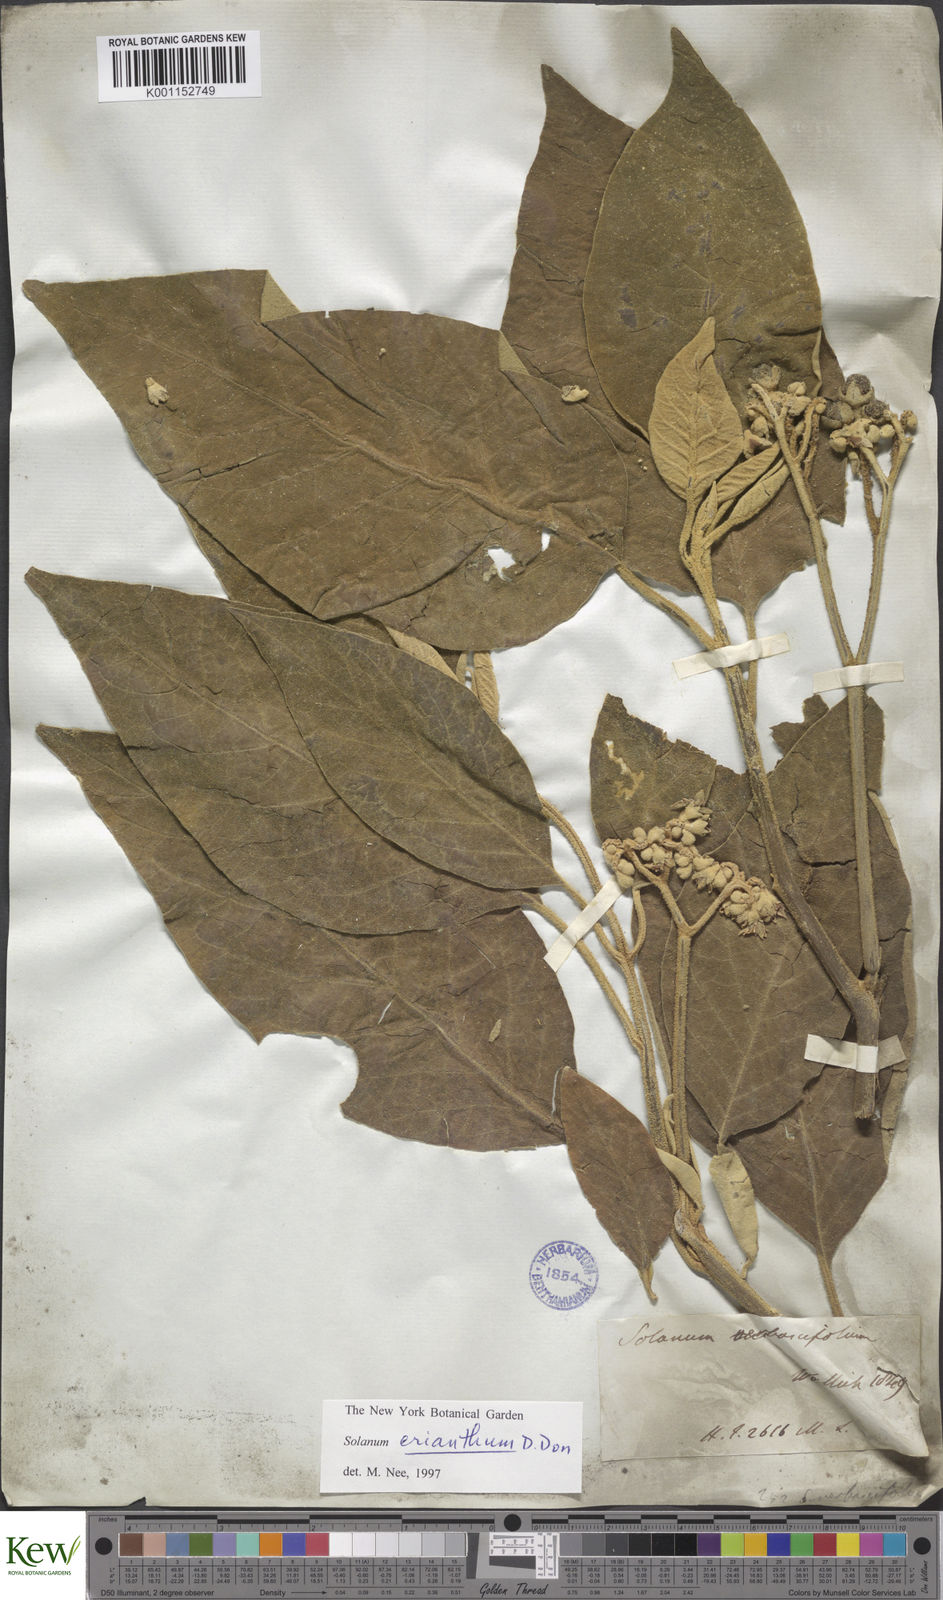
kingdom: Plantae
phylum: Tracheophyta
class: Magnoliopsida
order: Solanales
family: Solanaceae
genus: Solanum
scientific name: Solanum erianthum
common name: Tobacco-tree
